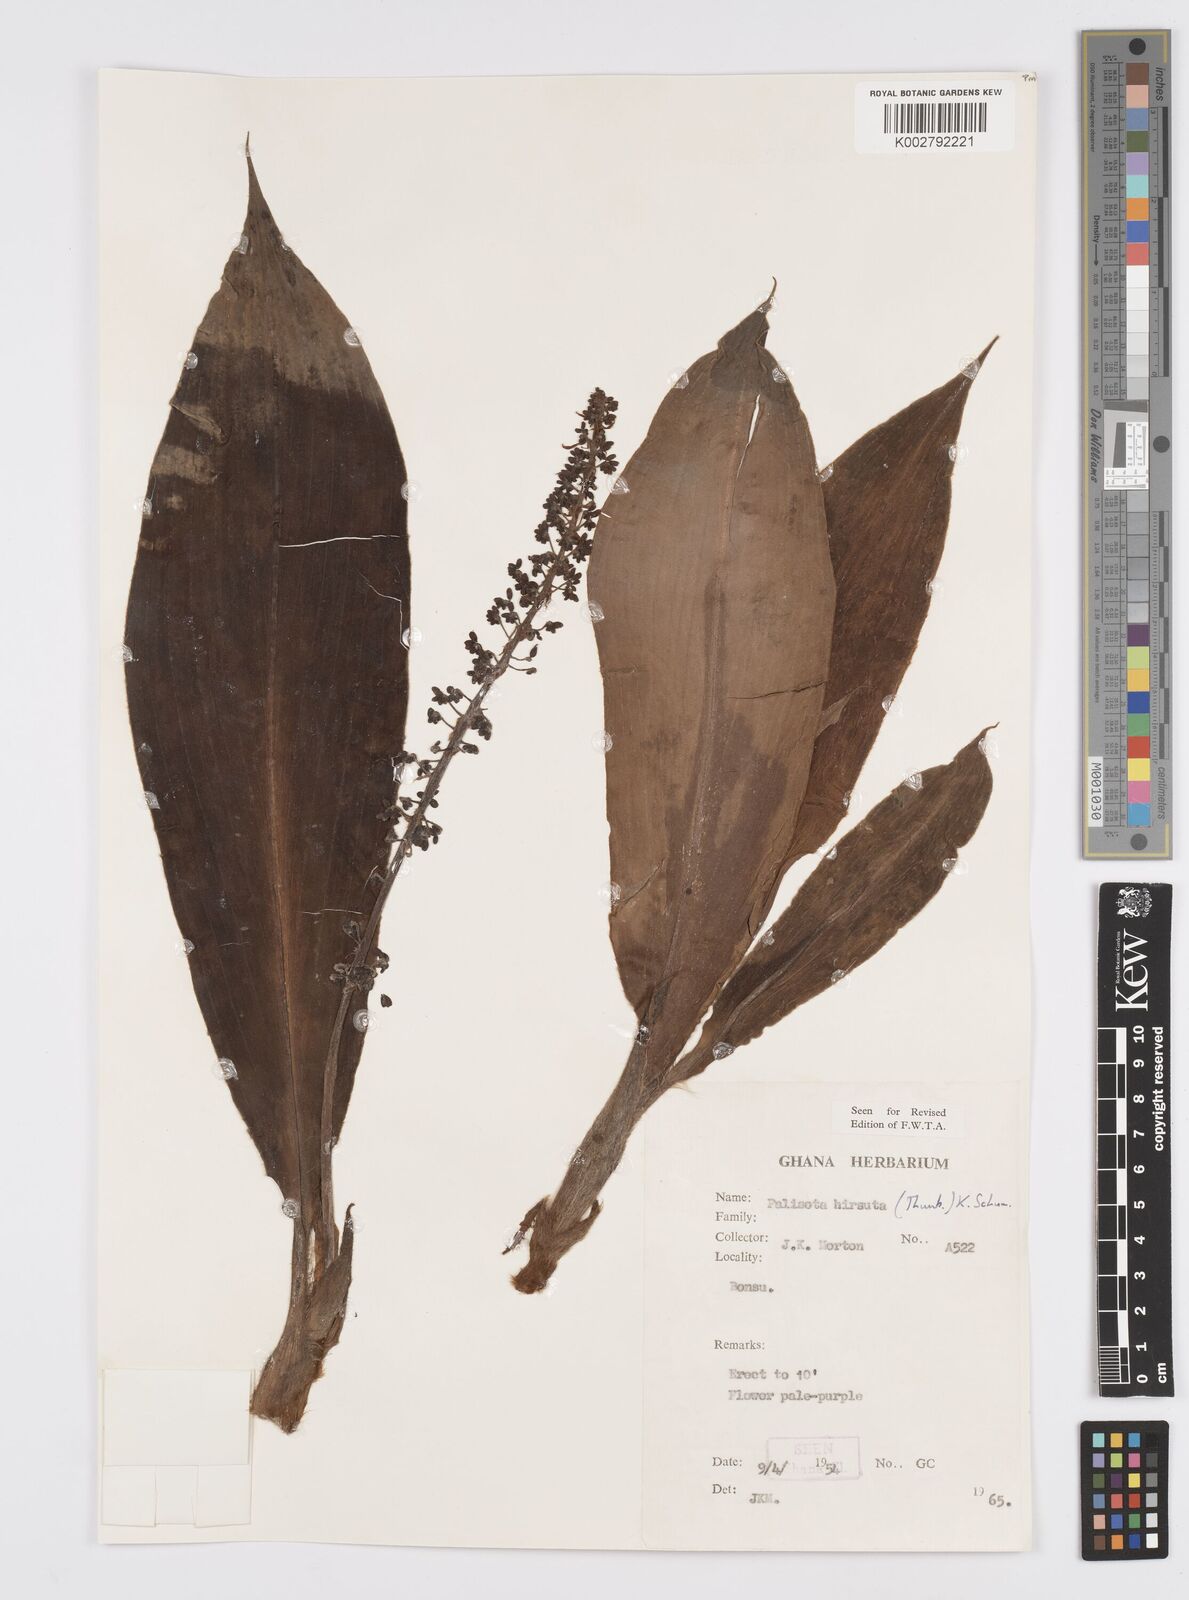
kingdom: Plantae
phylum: Tracheophyta
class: Liliopsida
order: Commelinales
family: Commelinaceae
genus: Palisota
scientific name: Palisota hirsuta
